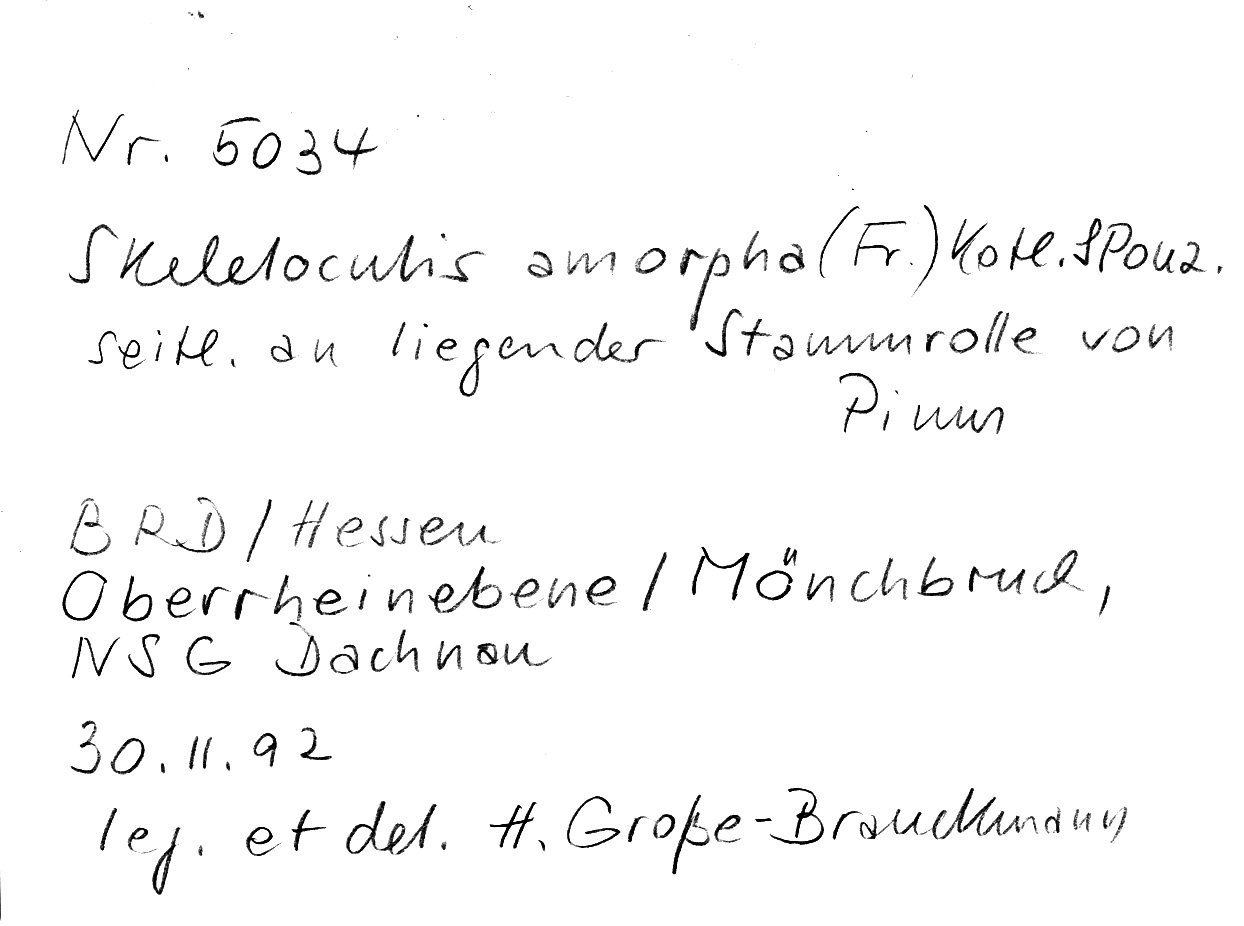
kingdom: Fungi
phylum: Basidiomycota
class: Agaricomycetes
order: Polyporales
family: Incrustoporiaceae
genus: Skeletocutis
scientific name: Skeletocutis amorpha
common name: Rusty crust
